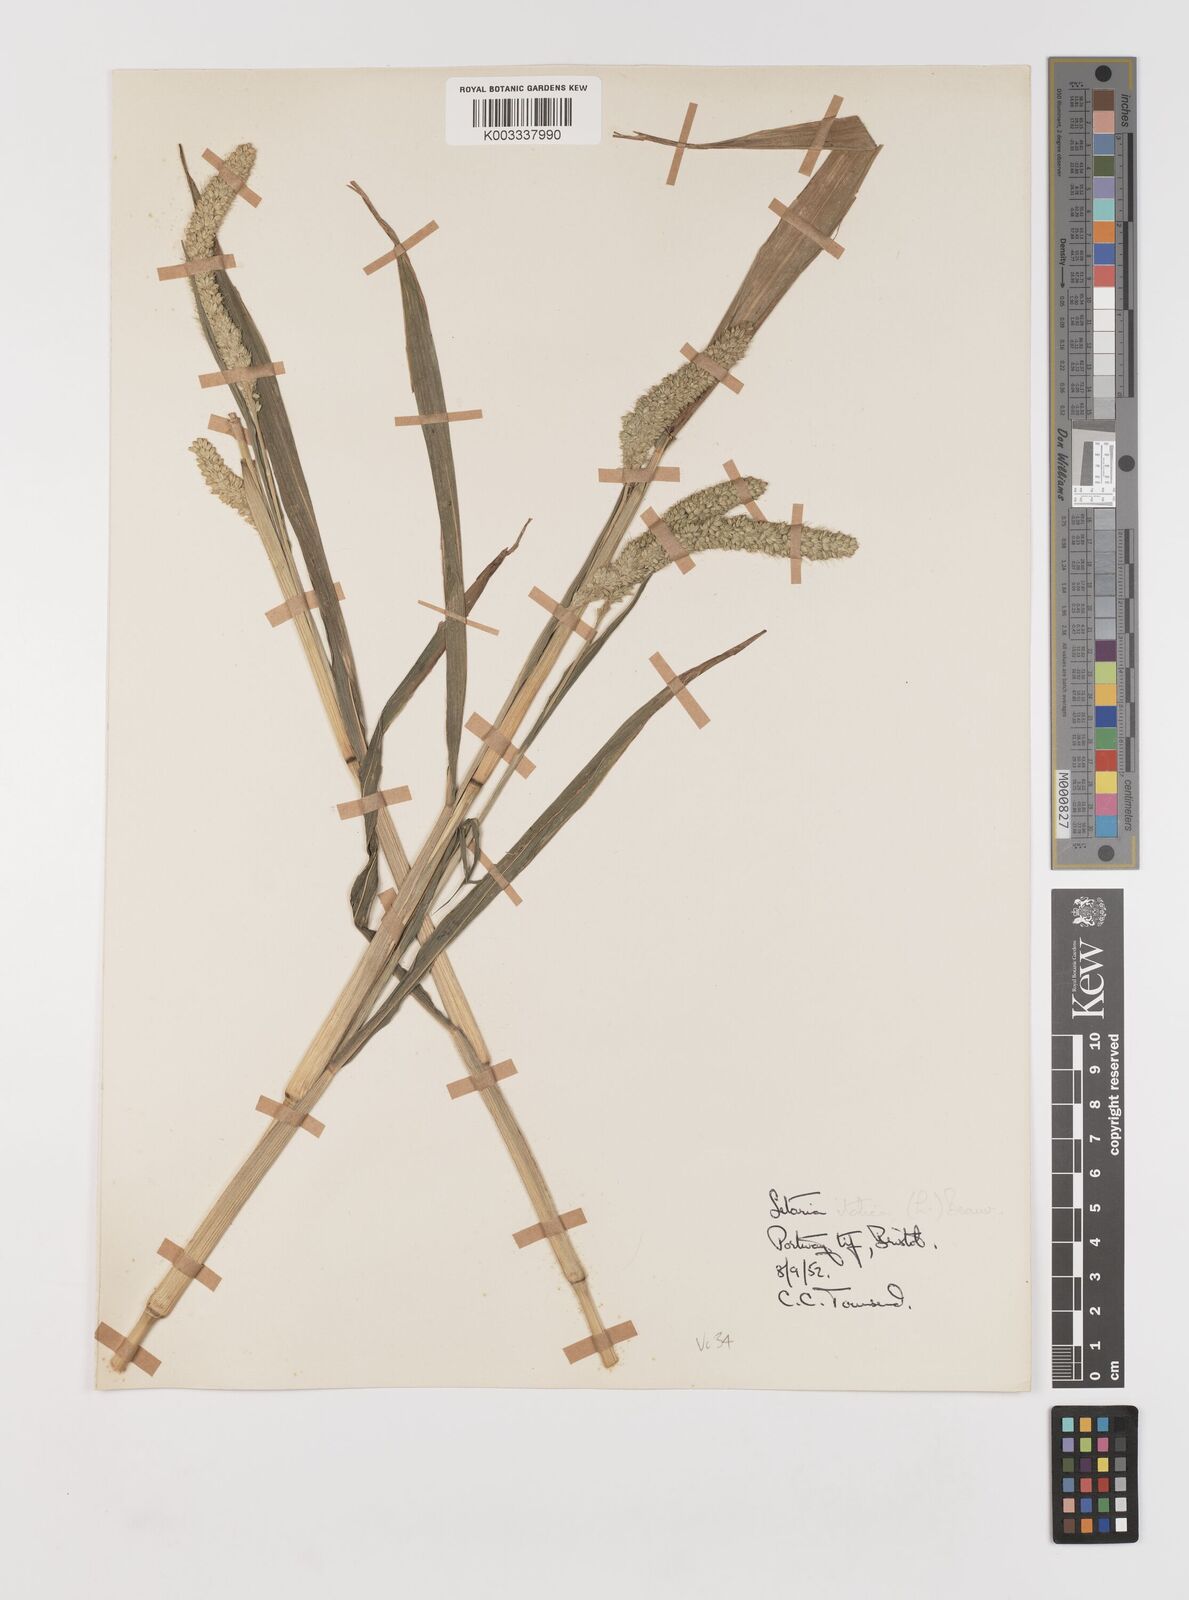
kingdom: Plantae
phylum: Tracheophyta
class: Liliopsida
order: Poales
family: Poaceae
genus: Setaria
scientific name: Setaria italica
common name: Foxtail bristle-grass
